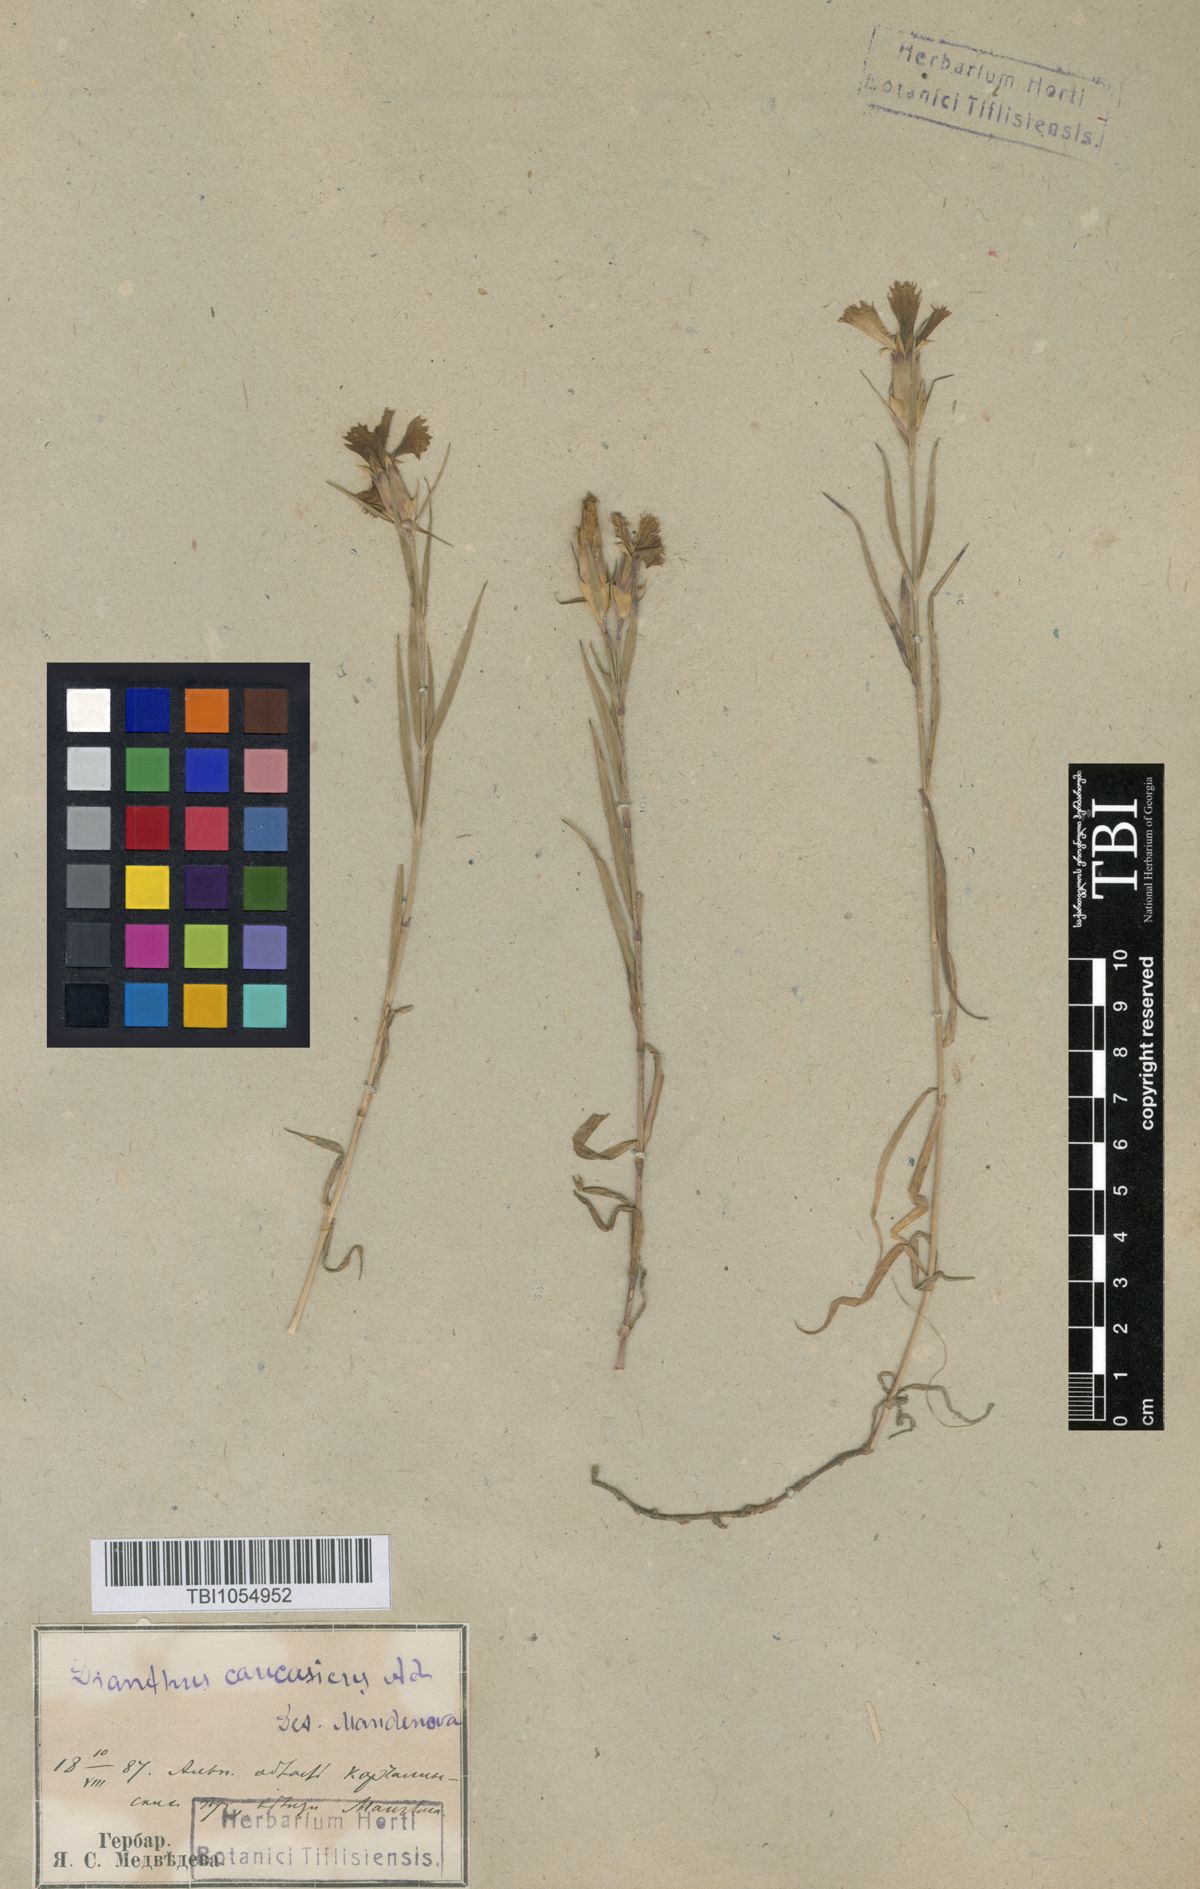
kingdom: Plantae
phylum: Tracheophyta
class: Magnoliopsida
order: Caryophyllales
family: Caryophyllaceae
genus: Dianthus
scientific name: Dianthus caucaseus
